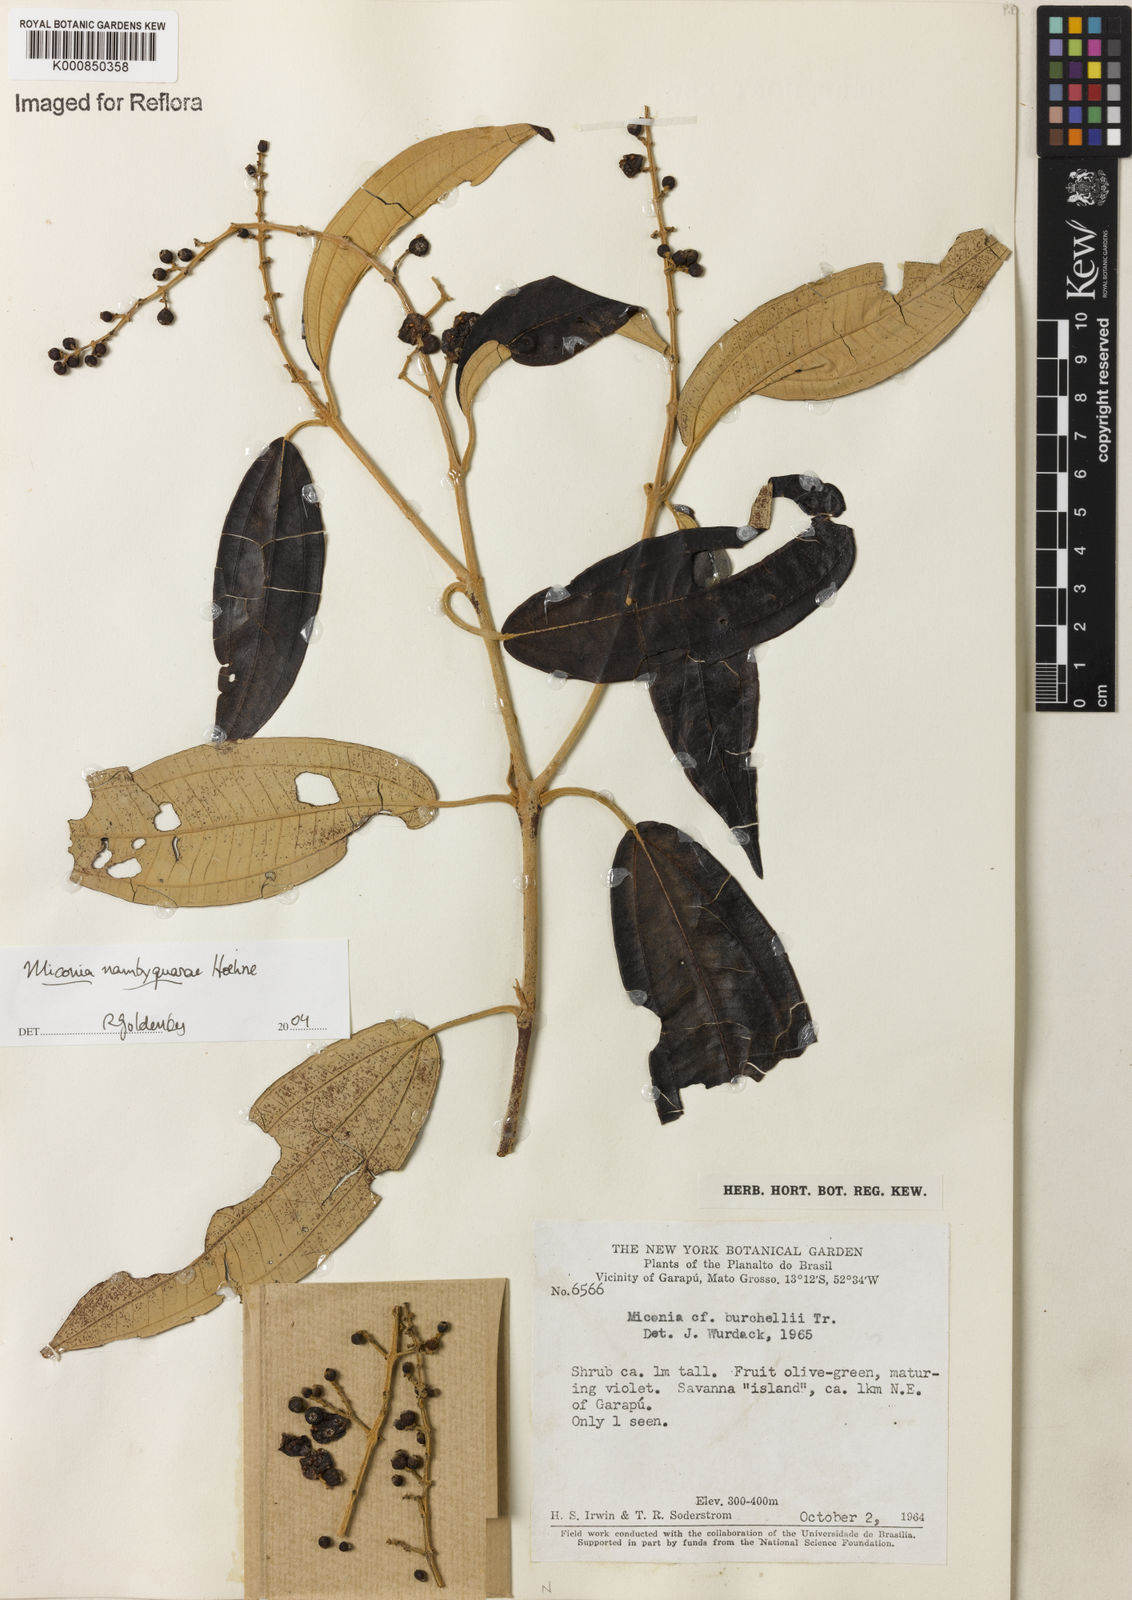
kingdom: Plantae
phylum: Tracheophyta
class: Magnoliopsida
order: Myrtales
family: Melastomataceae
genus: Miconia
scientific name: Miconia nambyquarae
